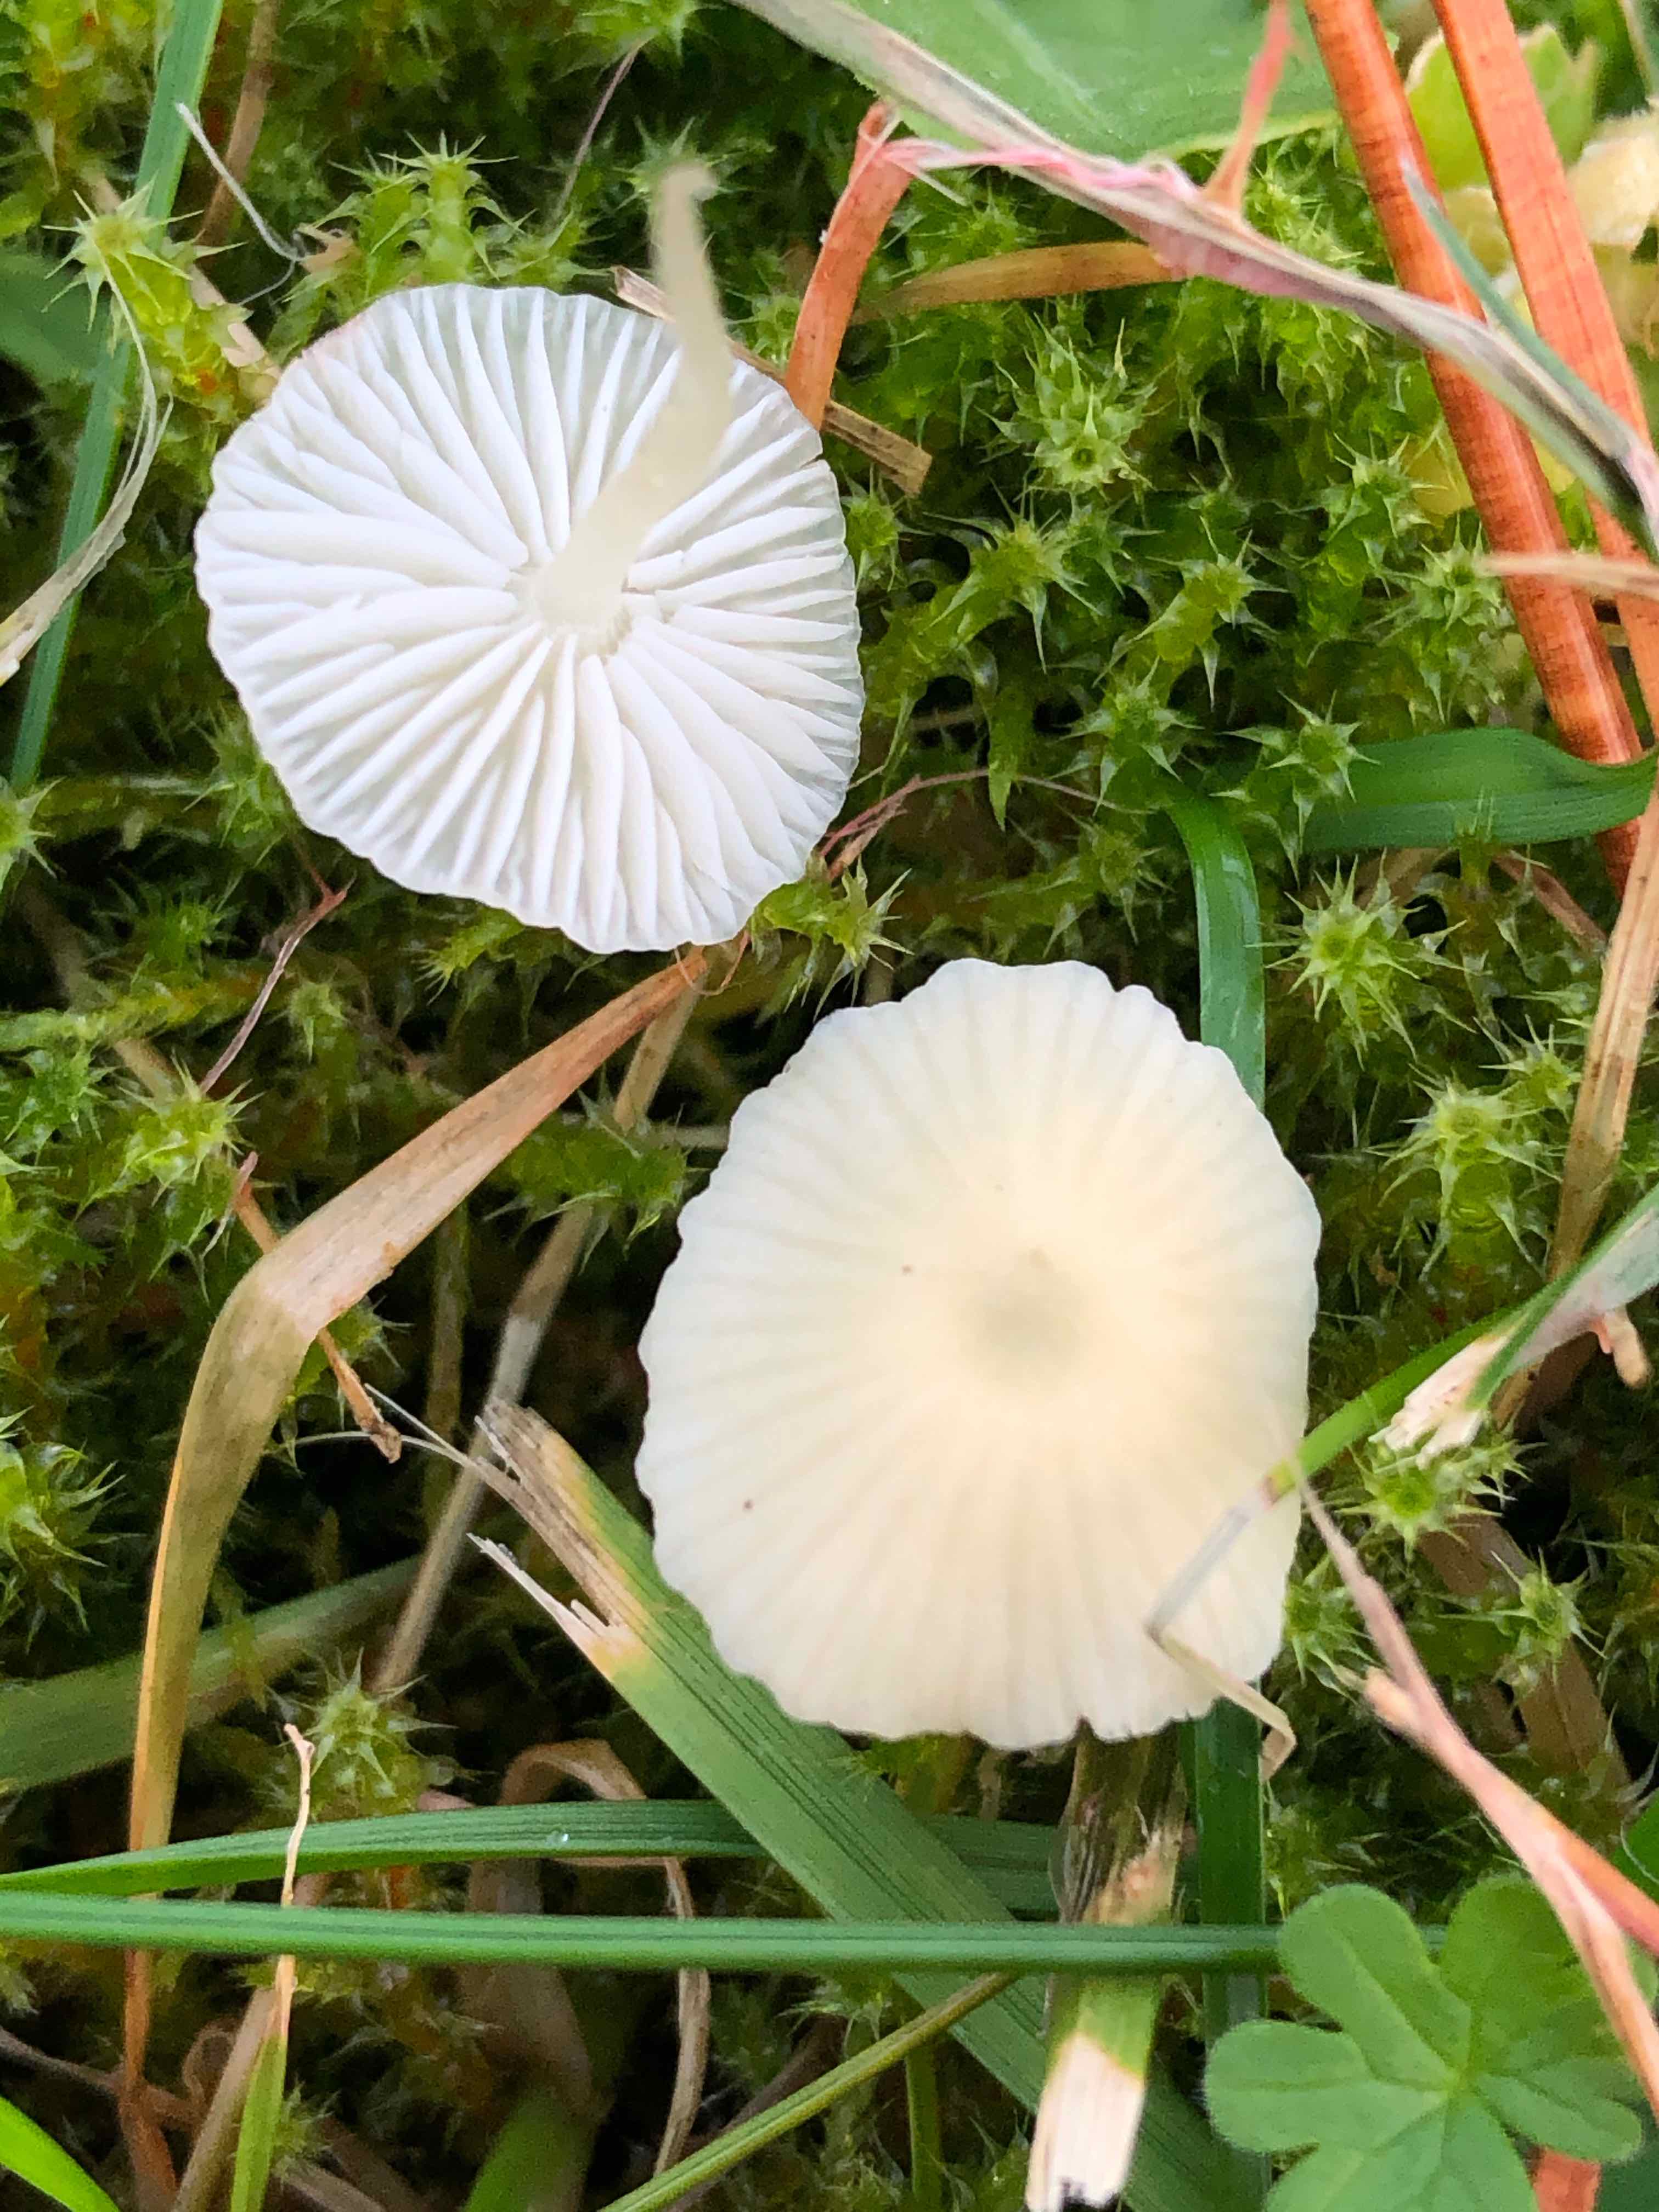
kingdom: Fungi
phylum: Basidiomycota
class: Agaricomycetes
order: Agaricales
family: Mycenaceae
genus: Atheniella
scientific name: Atheniella flavoalba
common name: gulhvid huesvamp
